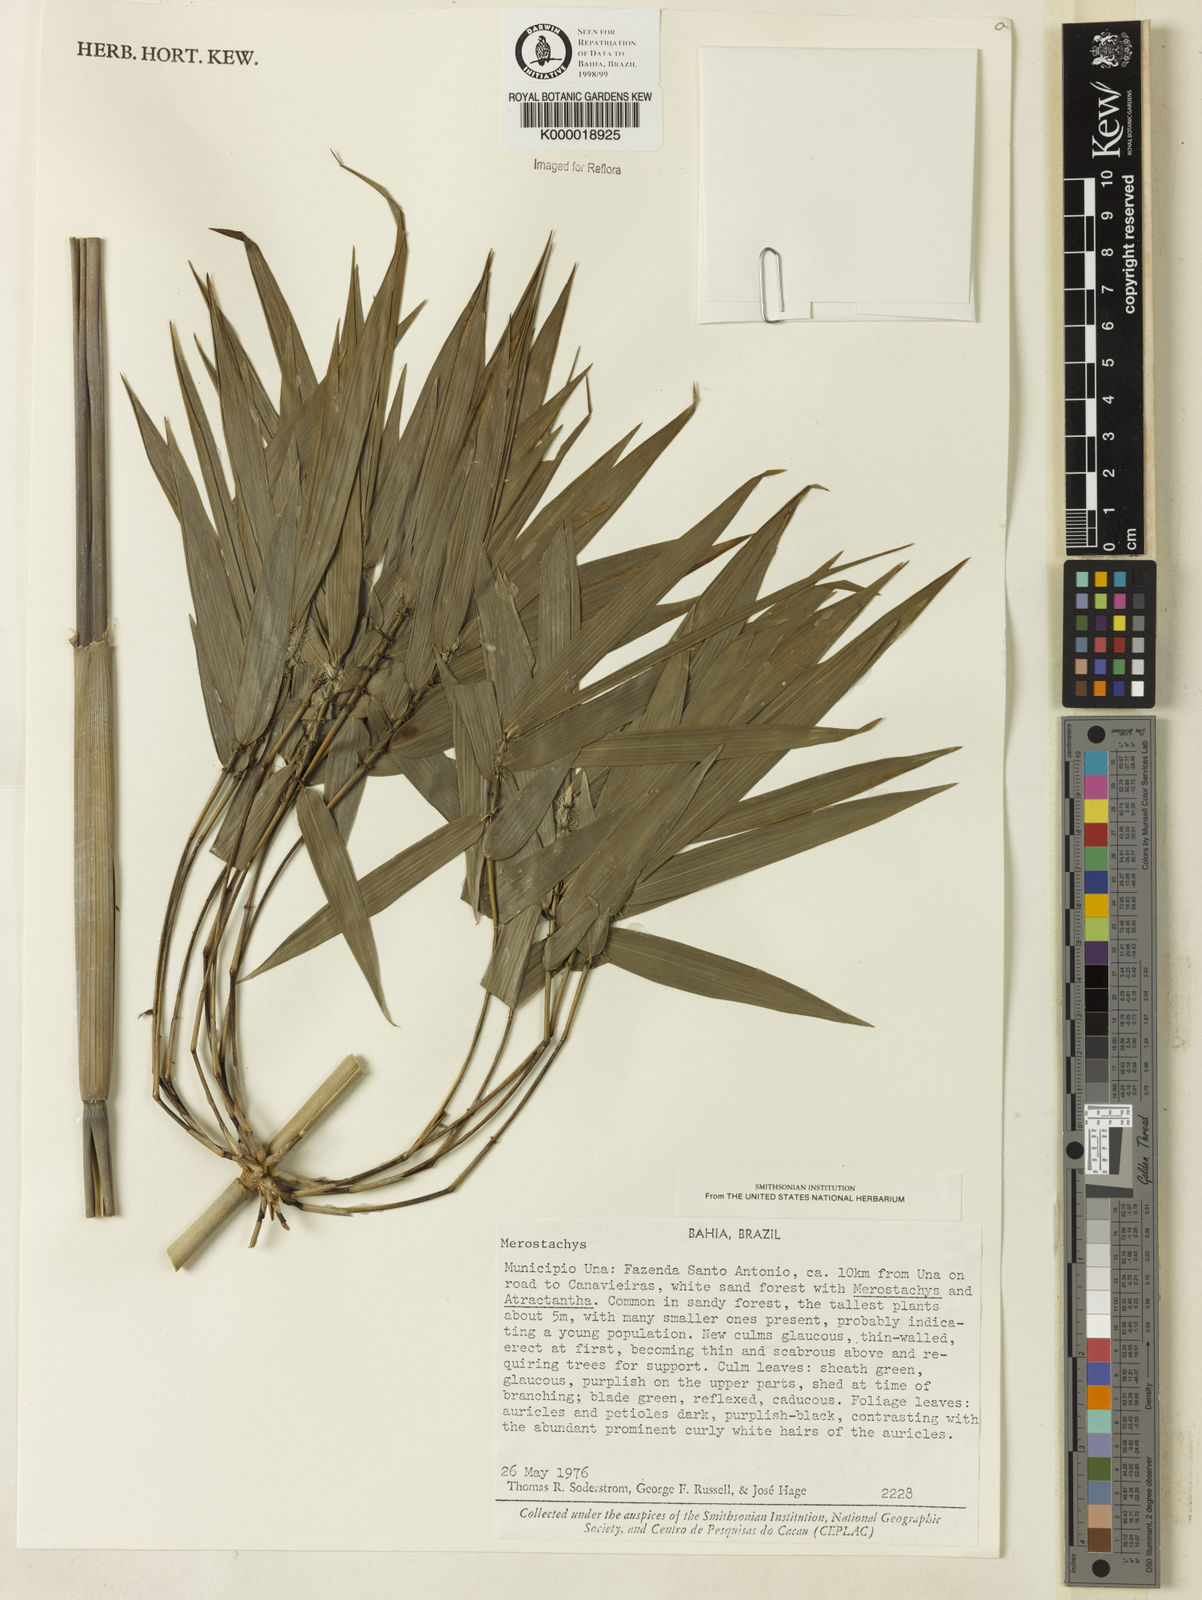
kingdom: Plantae
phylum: Tracheophyta
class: Liliopsida
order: Poales
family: Poaceae
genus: Merostachys
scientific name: Merostachys calderoniana
